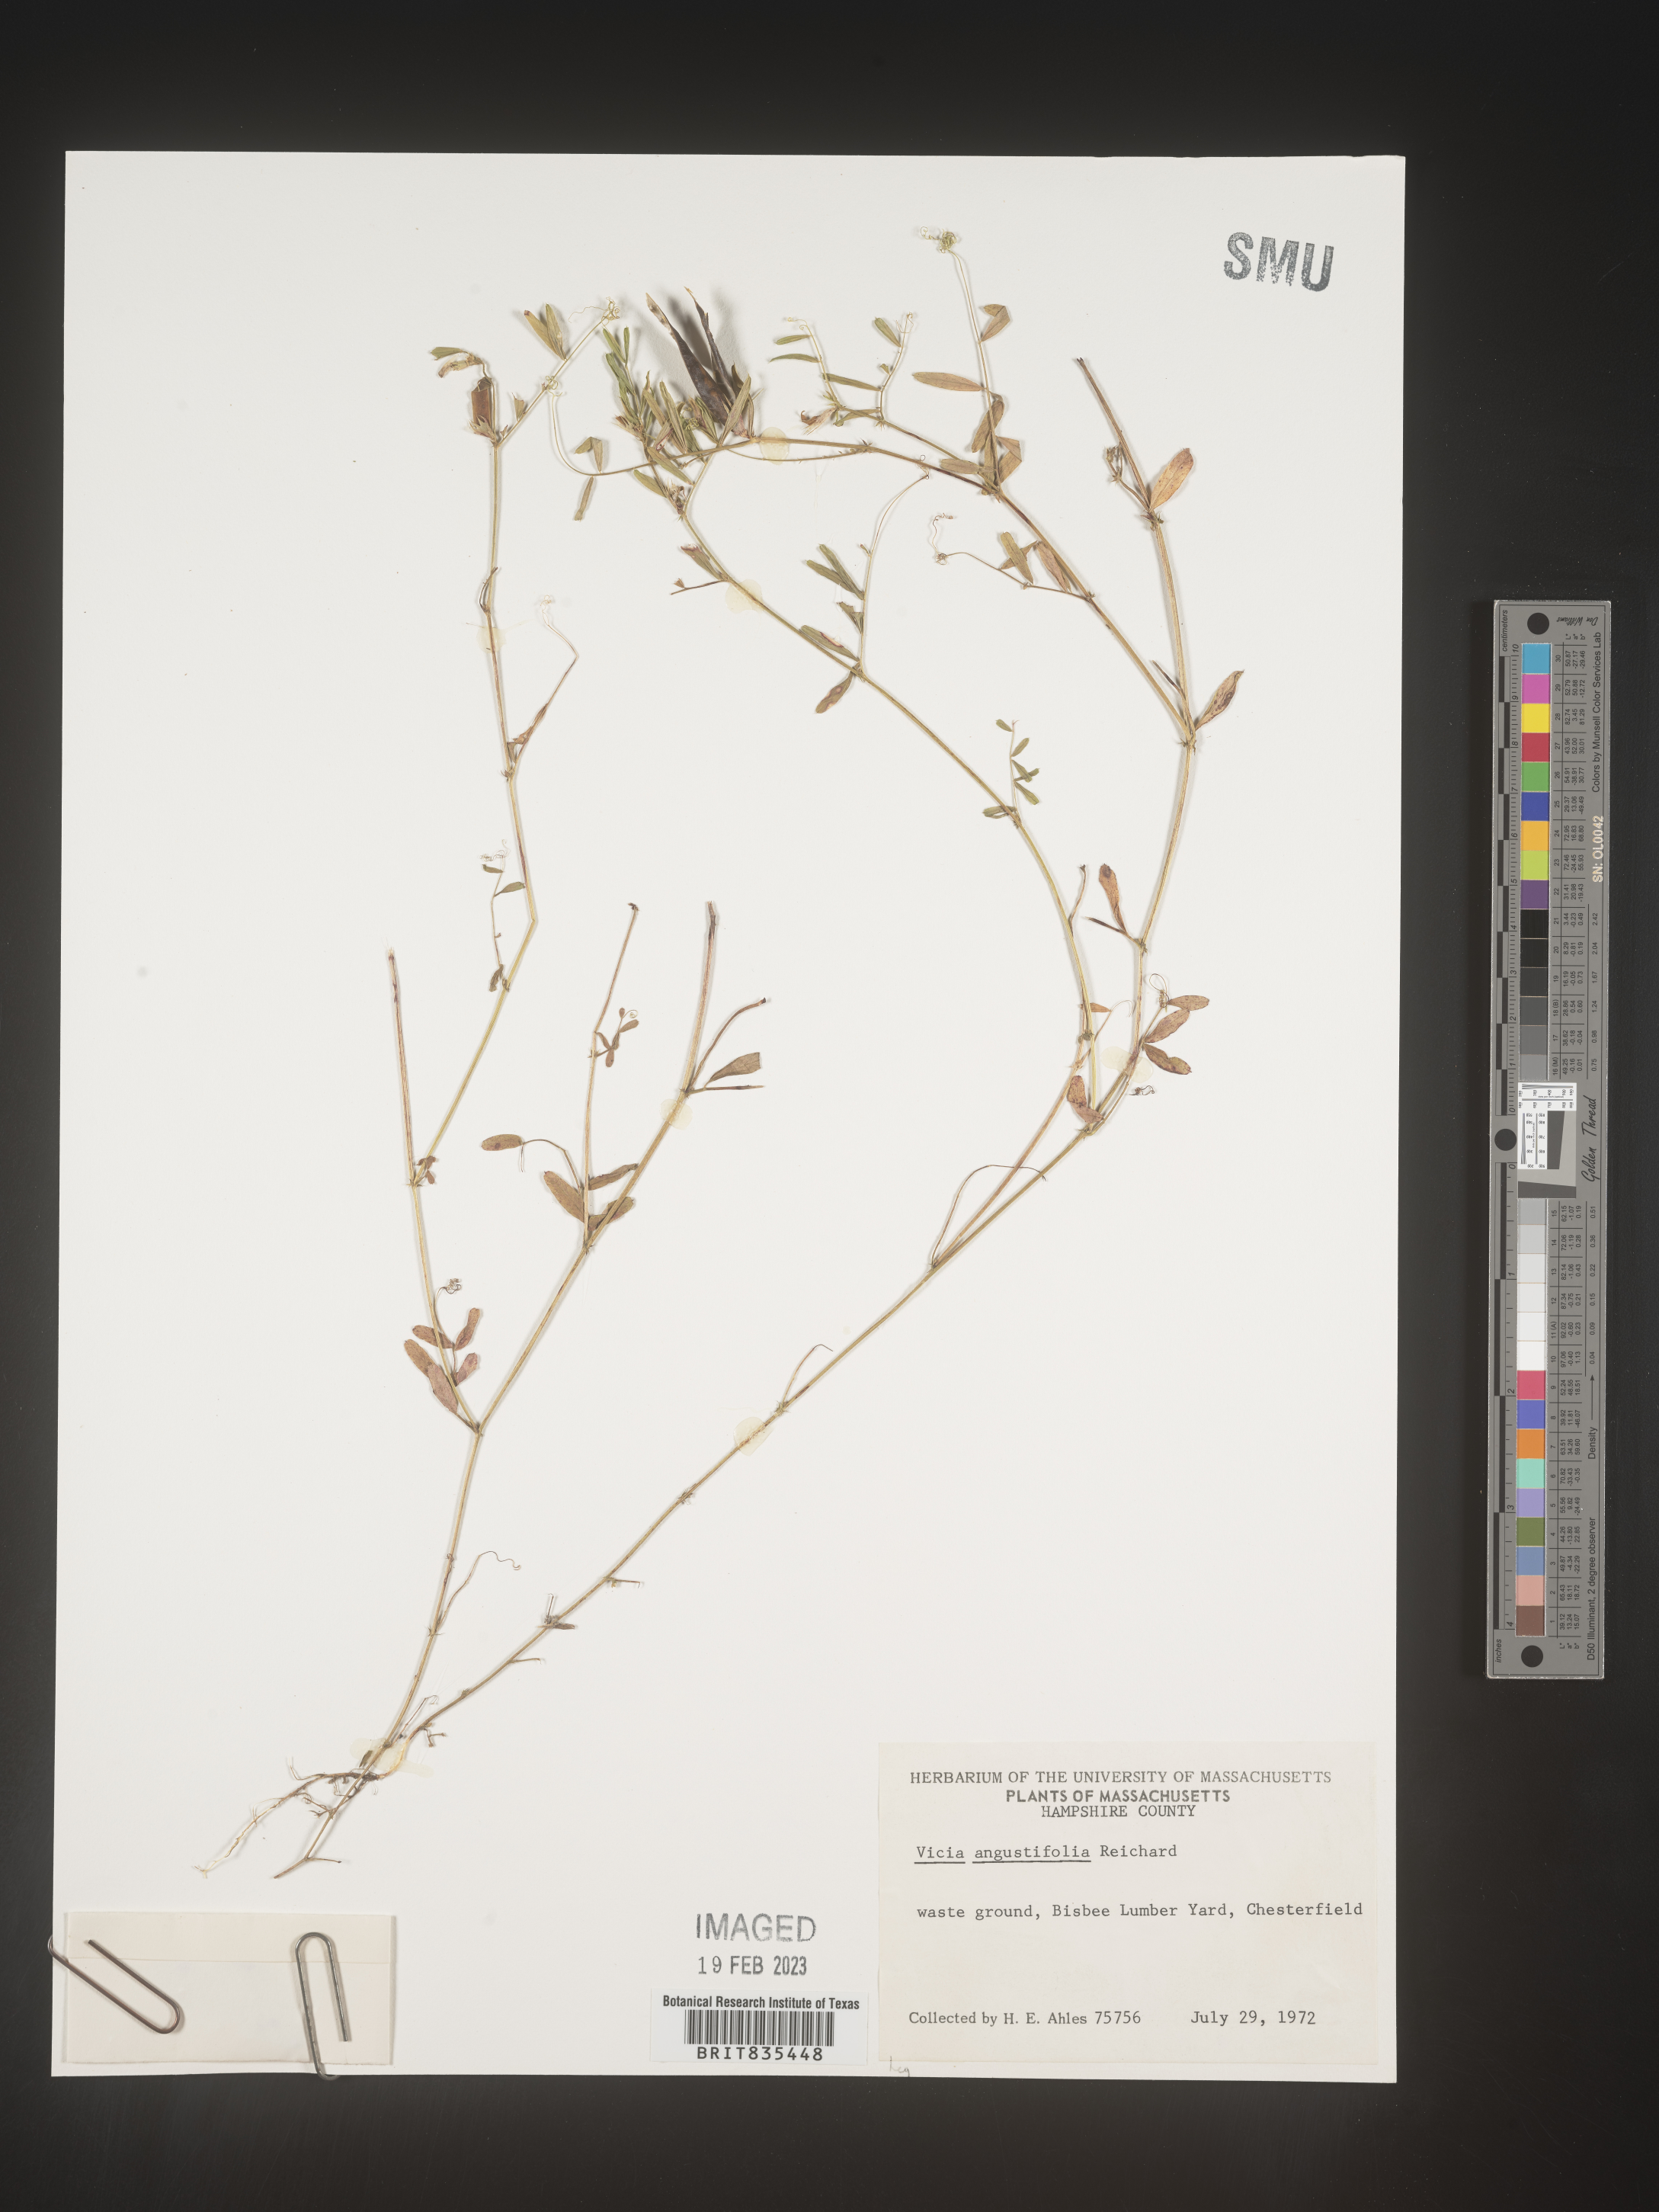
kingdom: Plantae
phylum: Tracheophyta
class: Magnoliopsida
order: Fabales
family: Fabaceae
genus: Vicia
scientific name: Vicia sativa
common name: Garden vetch
